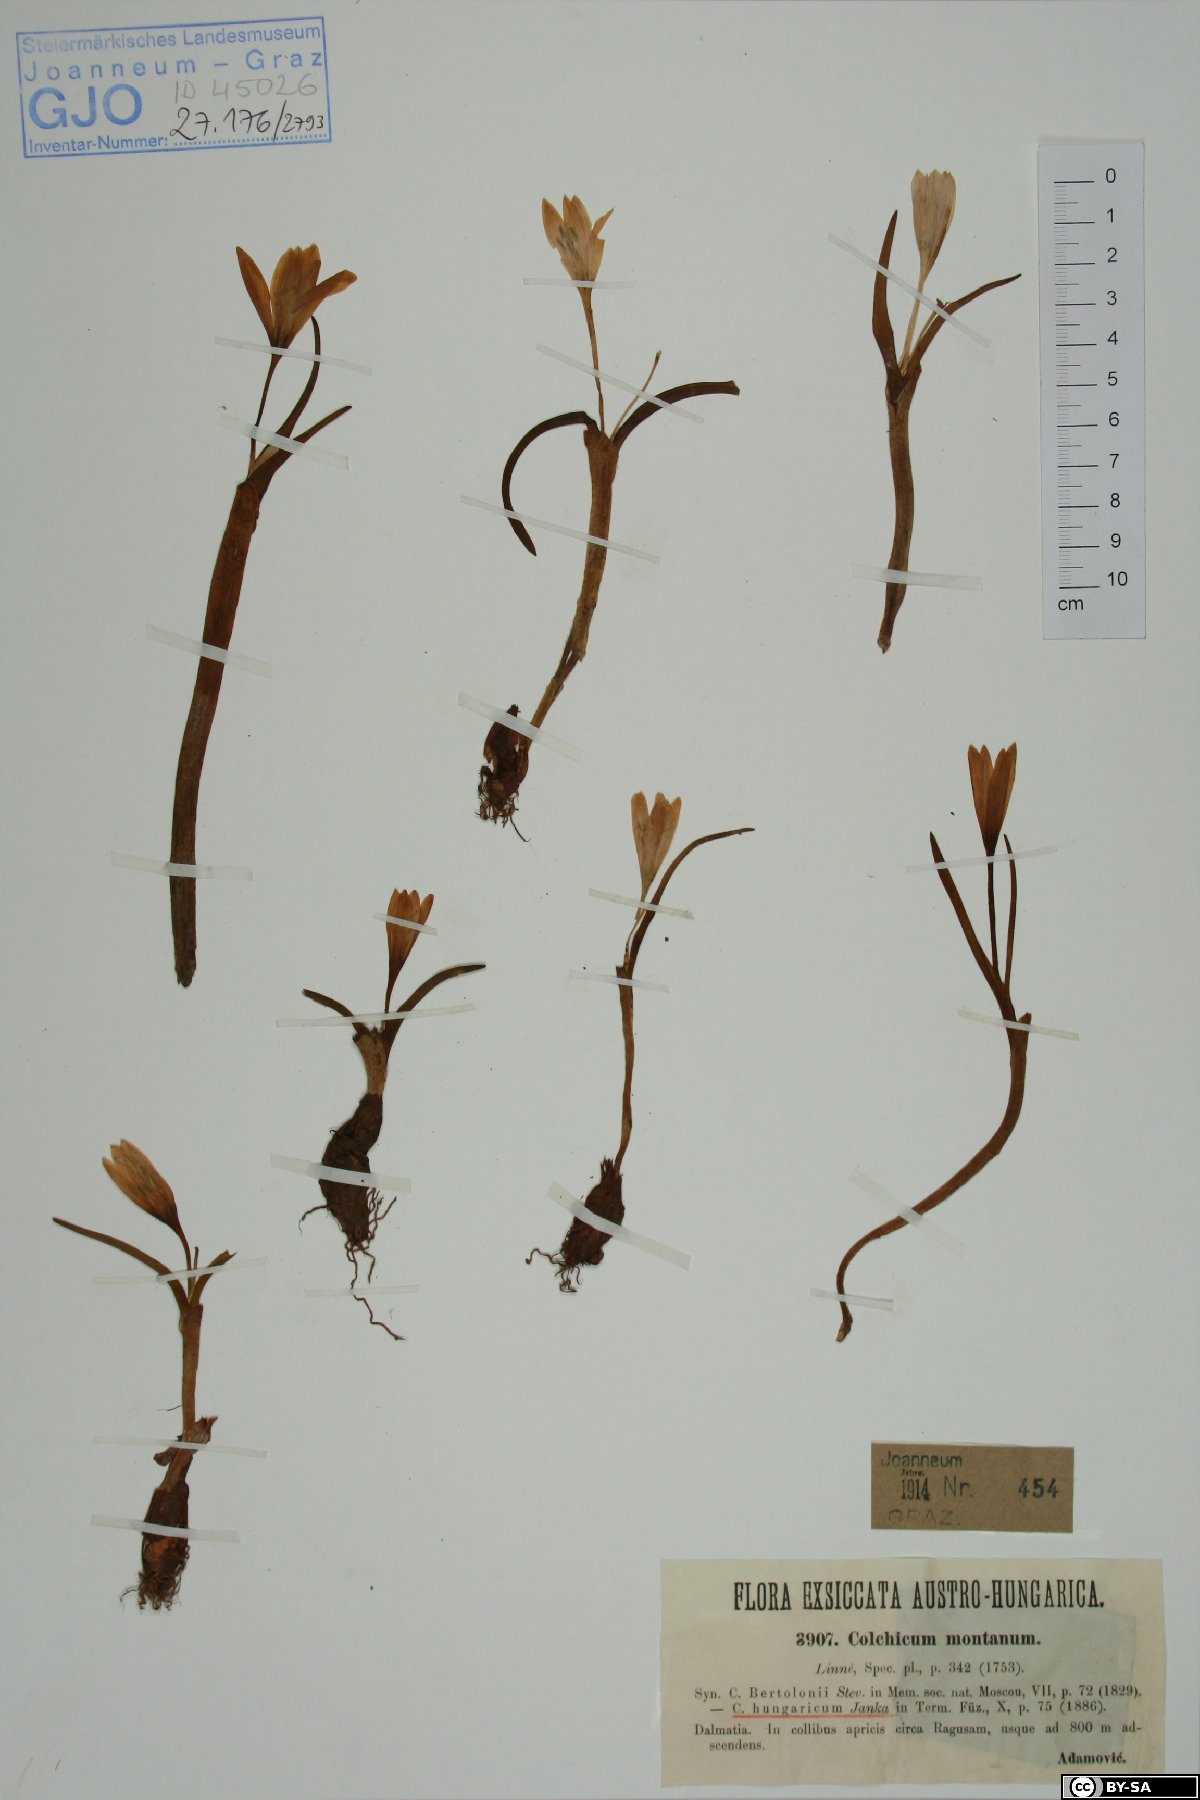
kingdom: Plantae
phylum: Tracheophyta
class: Liliopsida
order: Liliales
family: Colchicaceae
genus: Colchicum
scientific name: Colchicum montanum
